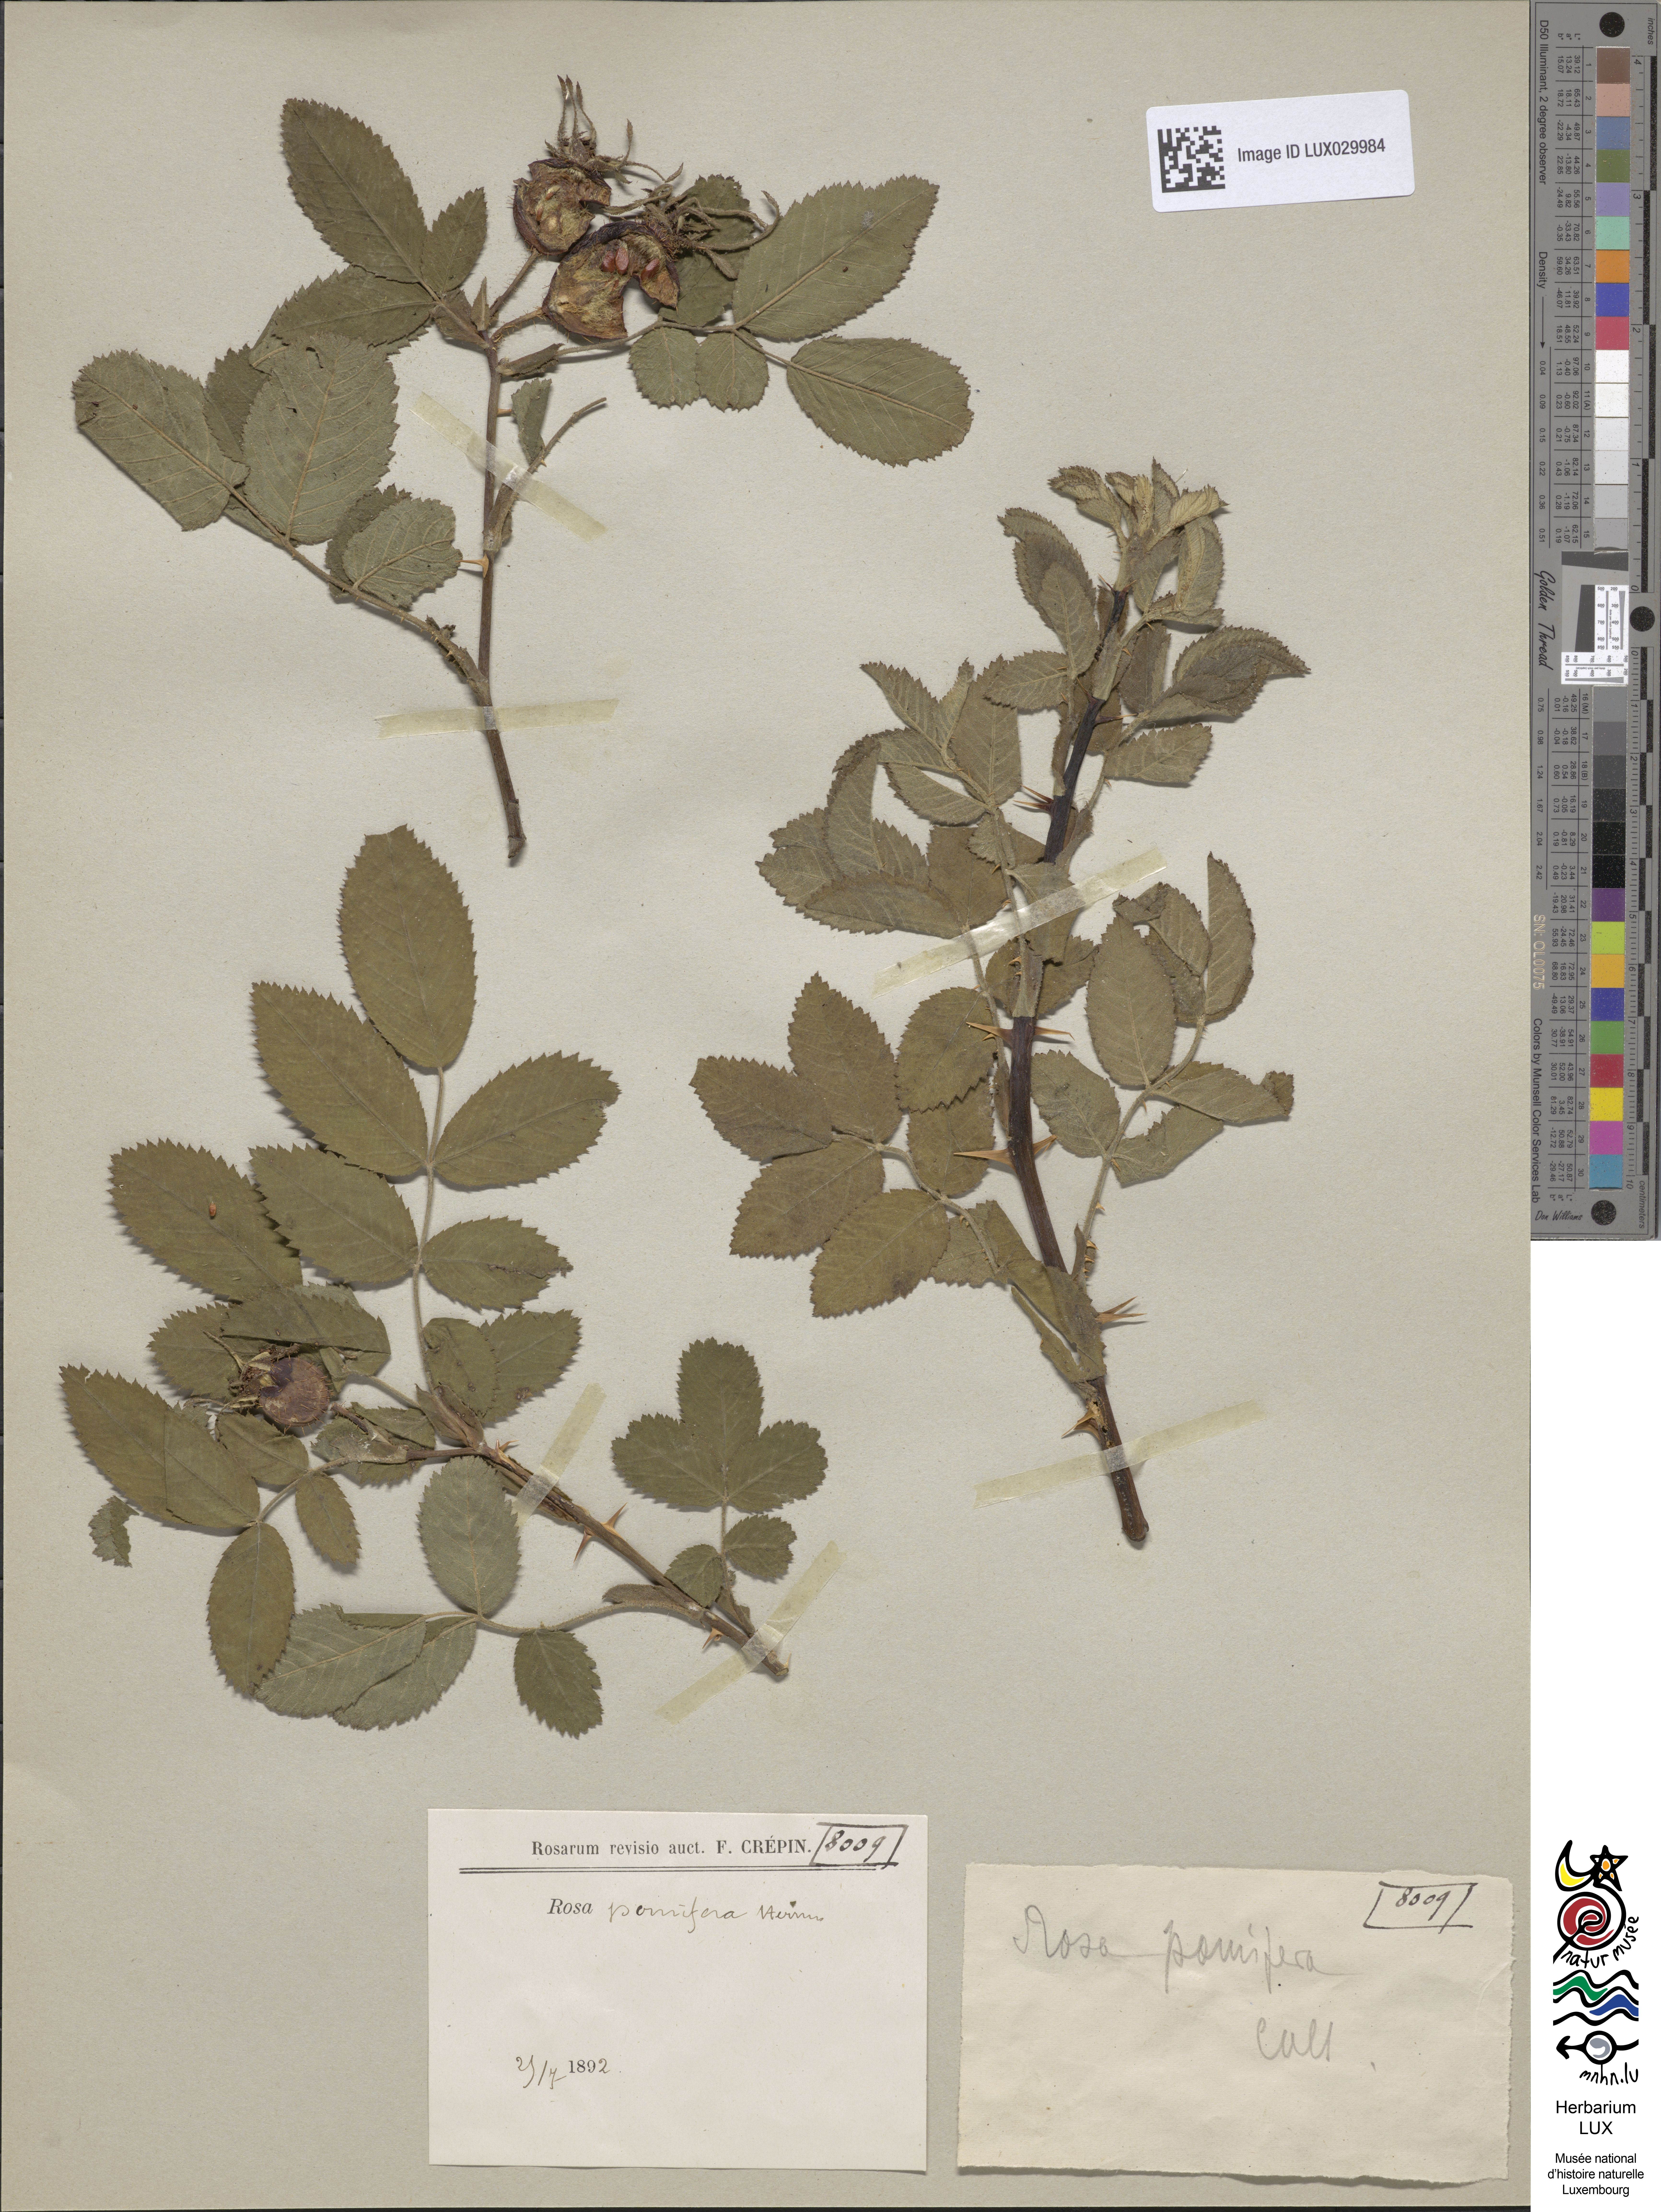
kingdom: Plantae
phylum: Tracheophyta
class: Magnoliopsida
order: Rosales
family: Rosaceae
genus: Rosa
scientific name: Rosa villosa
